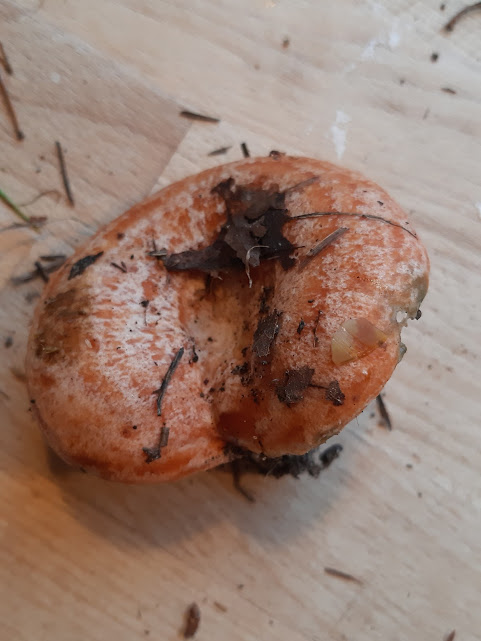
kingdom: Fungi
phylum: Basidiomycota
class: Agaricomycetes
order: Russulales
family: Russulaceae
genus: Lactarius
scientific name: Lactarius deliciosus
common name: velsmagende mælkehat
